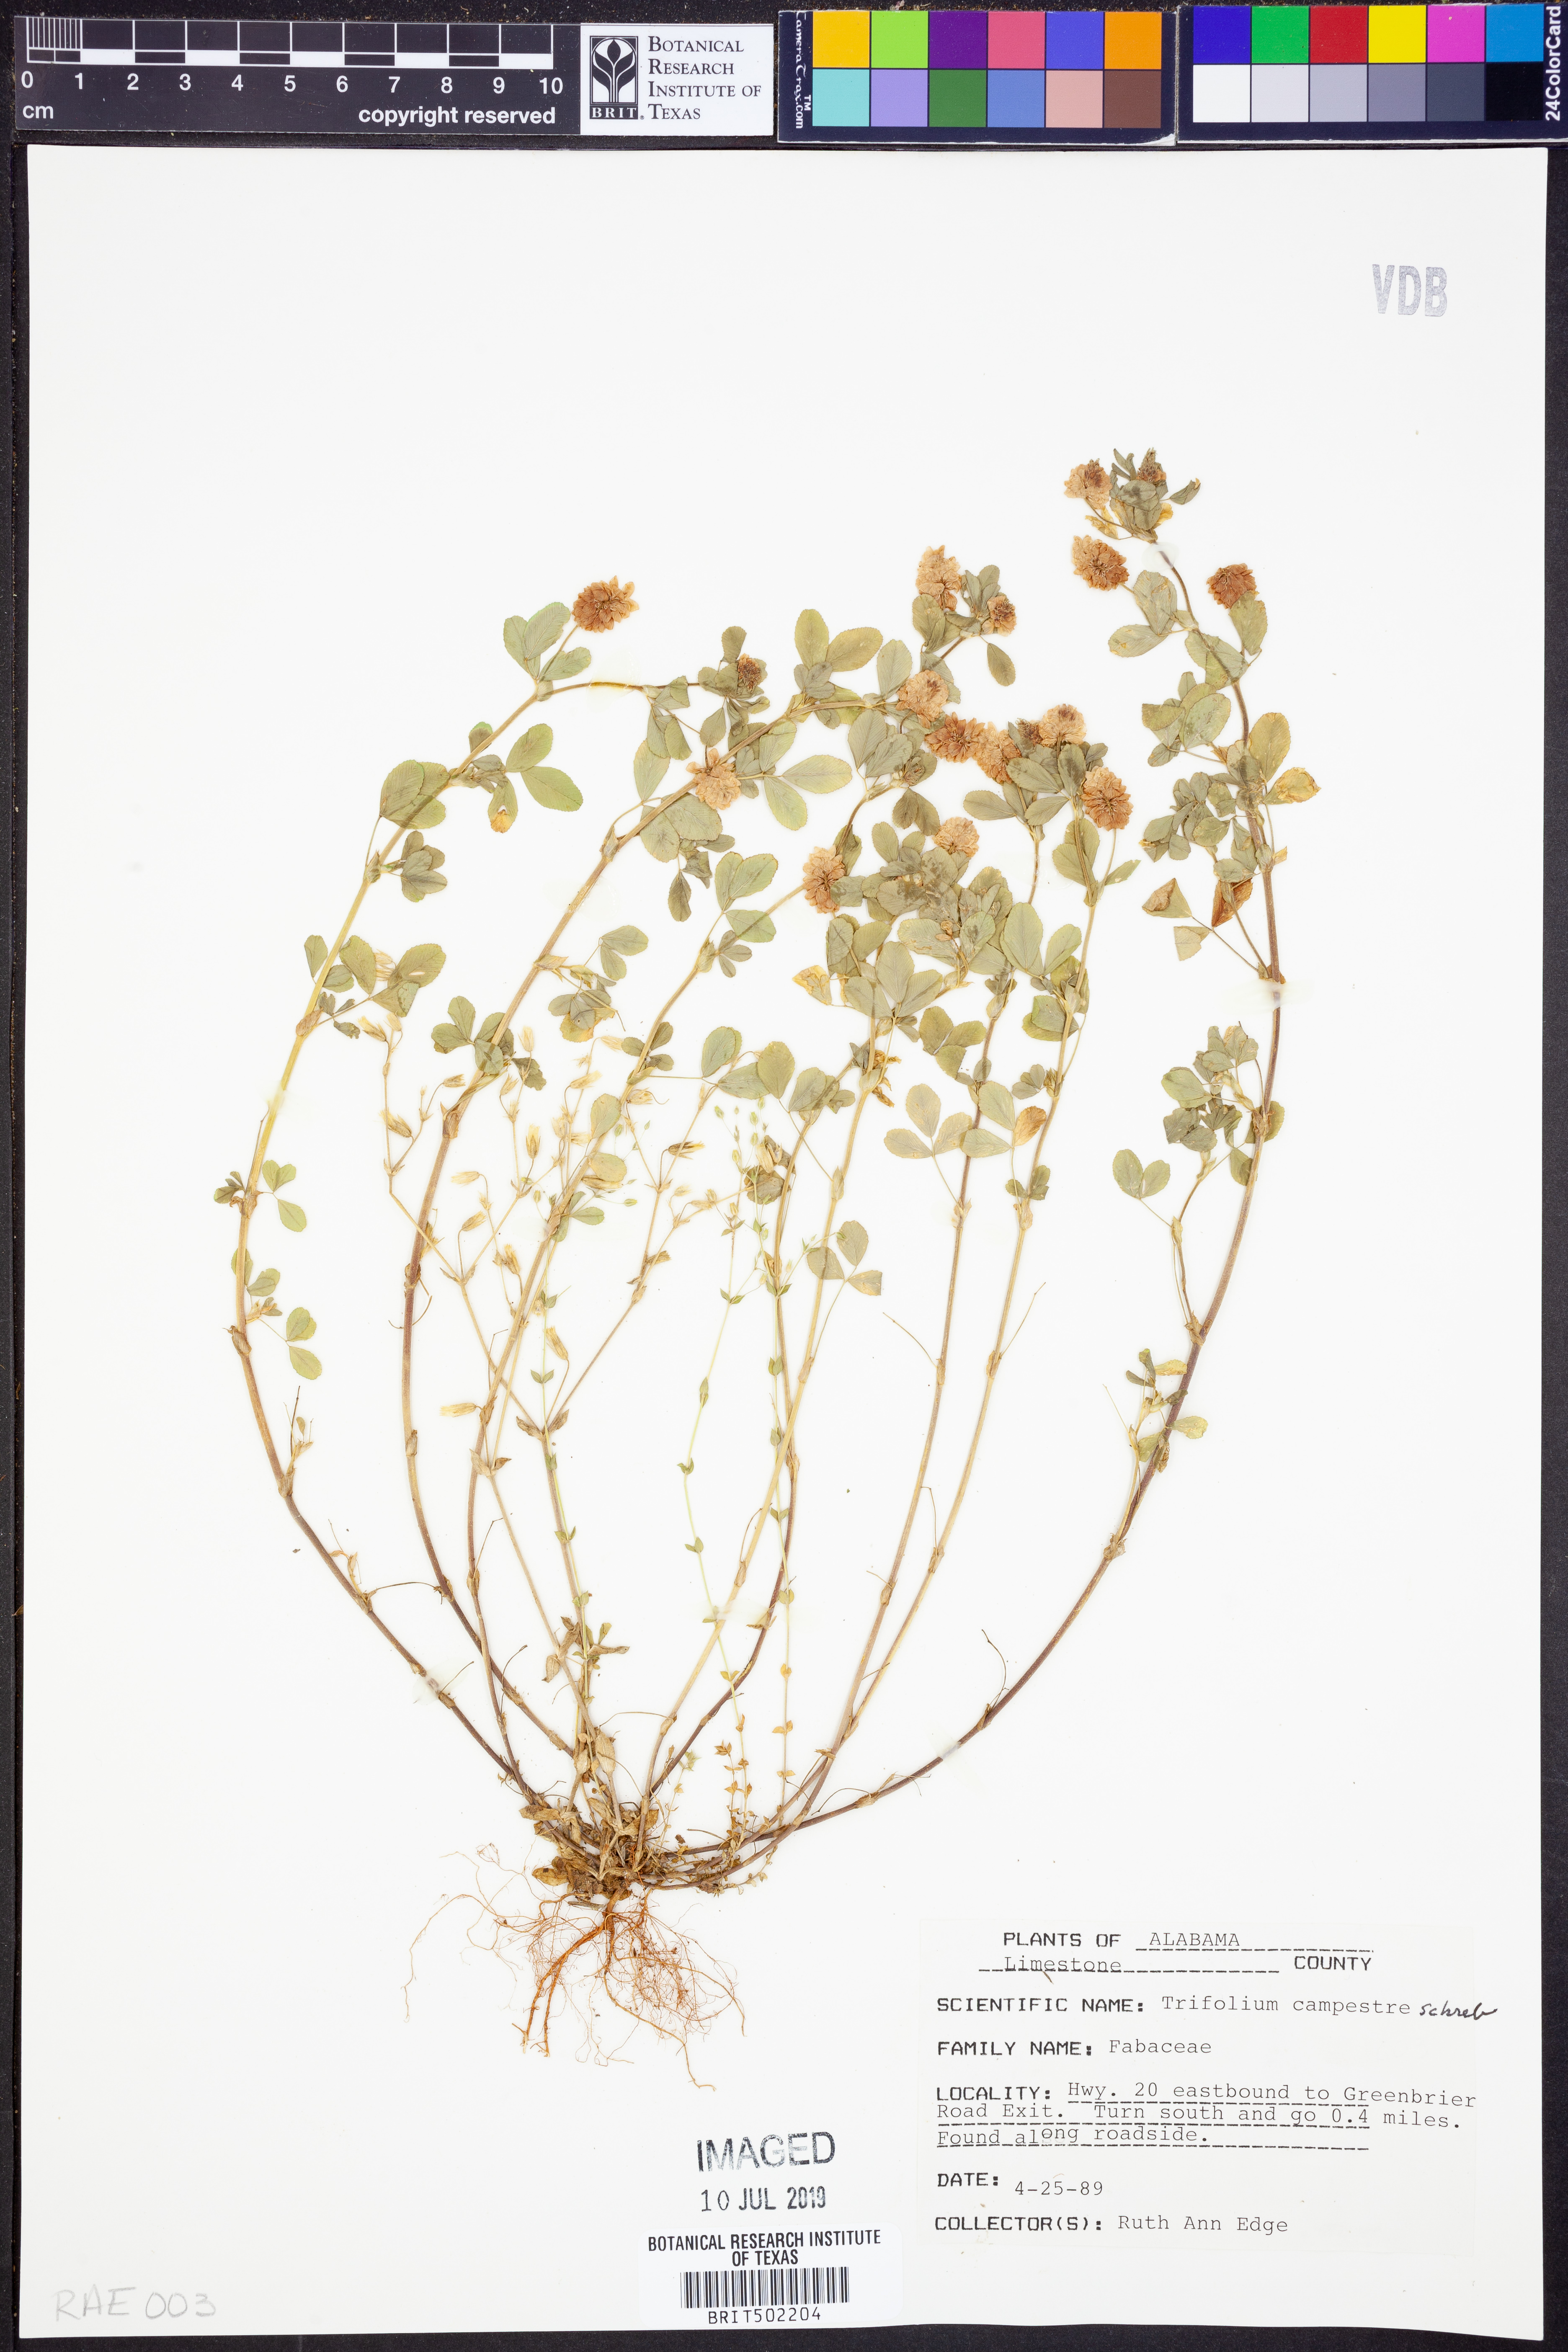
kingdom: Plantae
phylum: Tracheophyta
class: Magnoliopsida
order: Fabales
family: Fabaceae
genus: Trifolium
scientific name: Trifolium campestre
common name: Field clover
